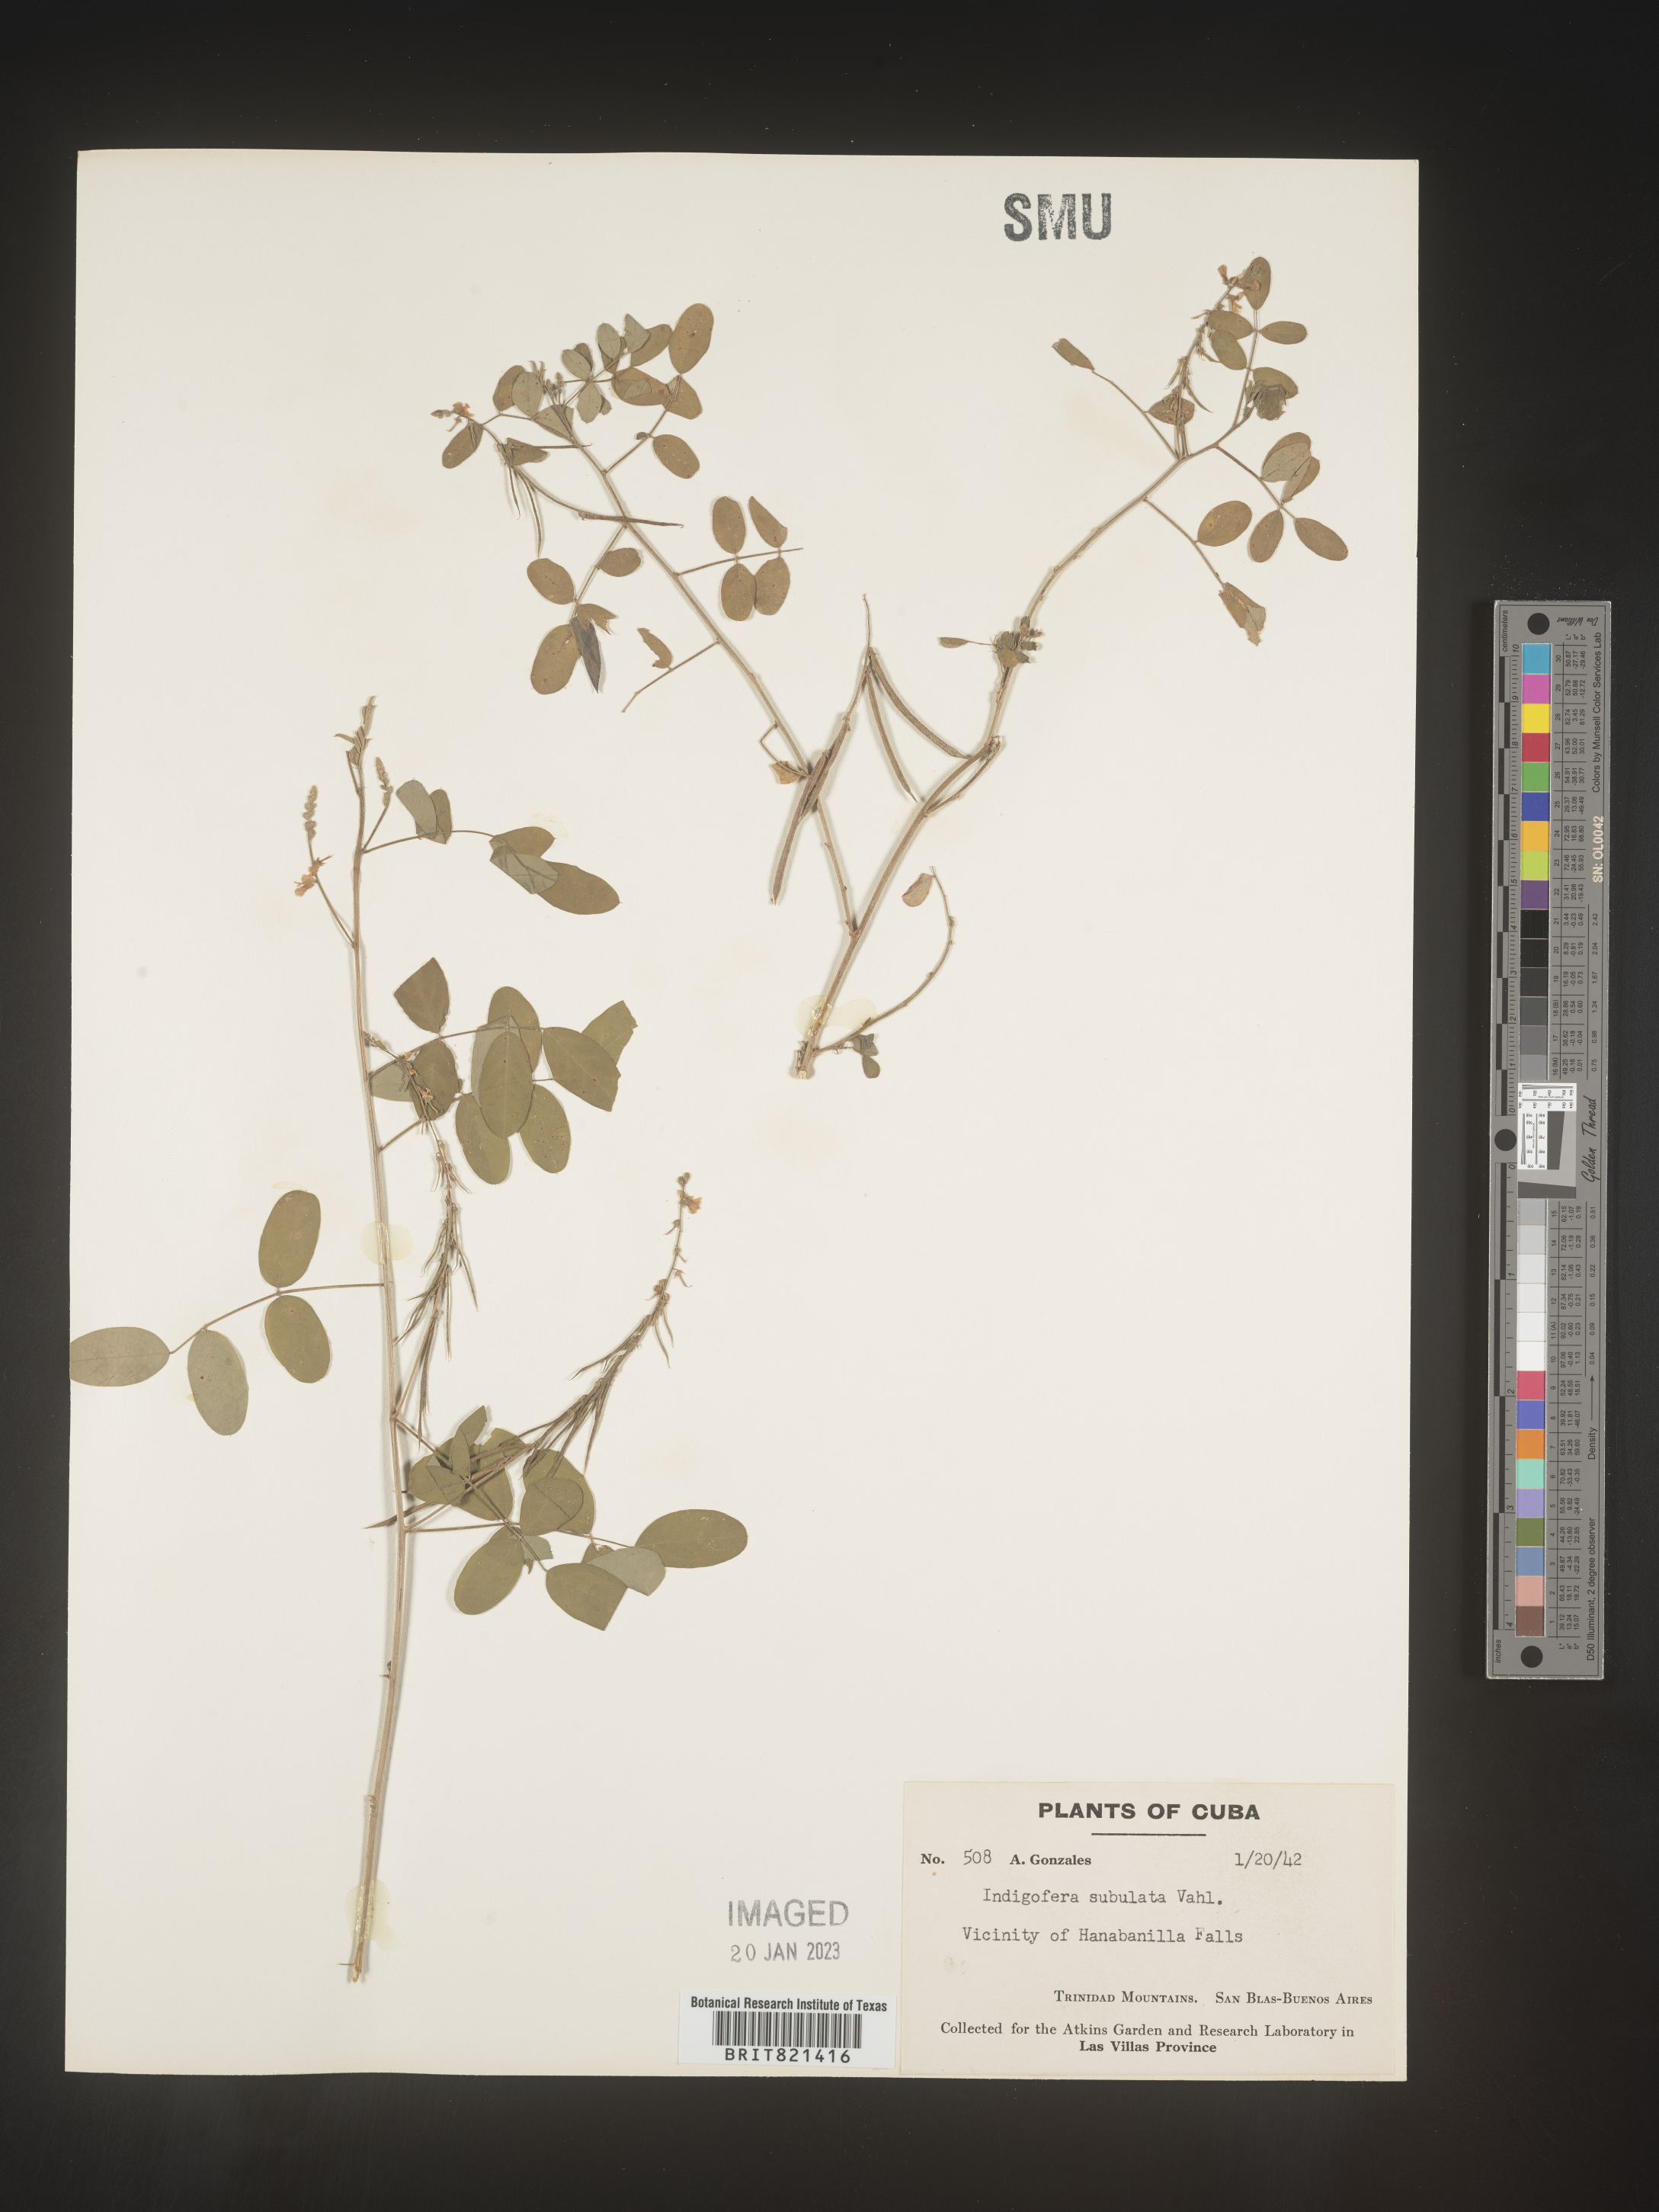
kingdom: Plantae
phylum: Tracheophyta
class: Magnoliopsida
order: Fabales
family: Fabaceae
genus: Indigofera
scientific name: Indigofera
